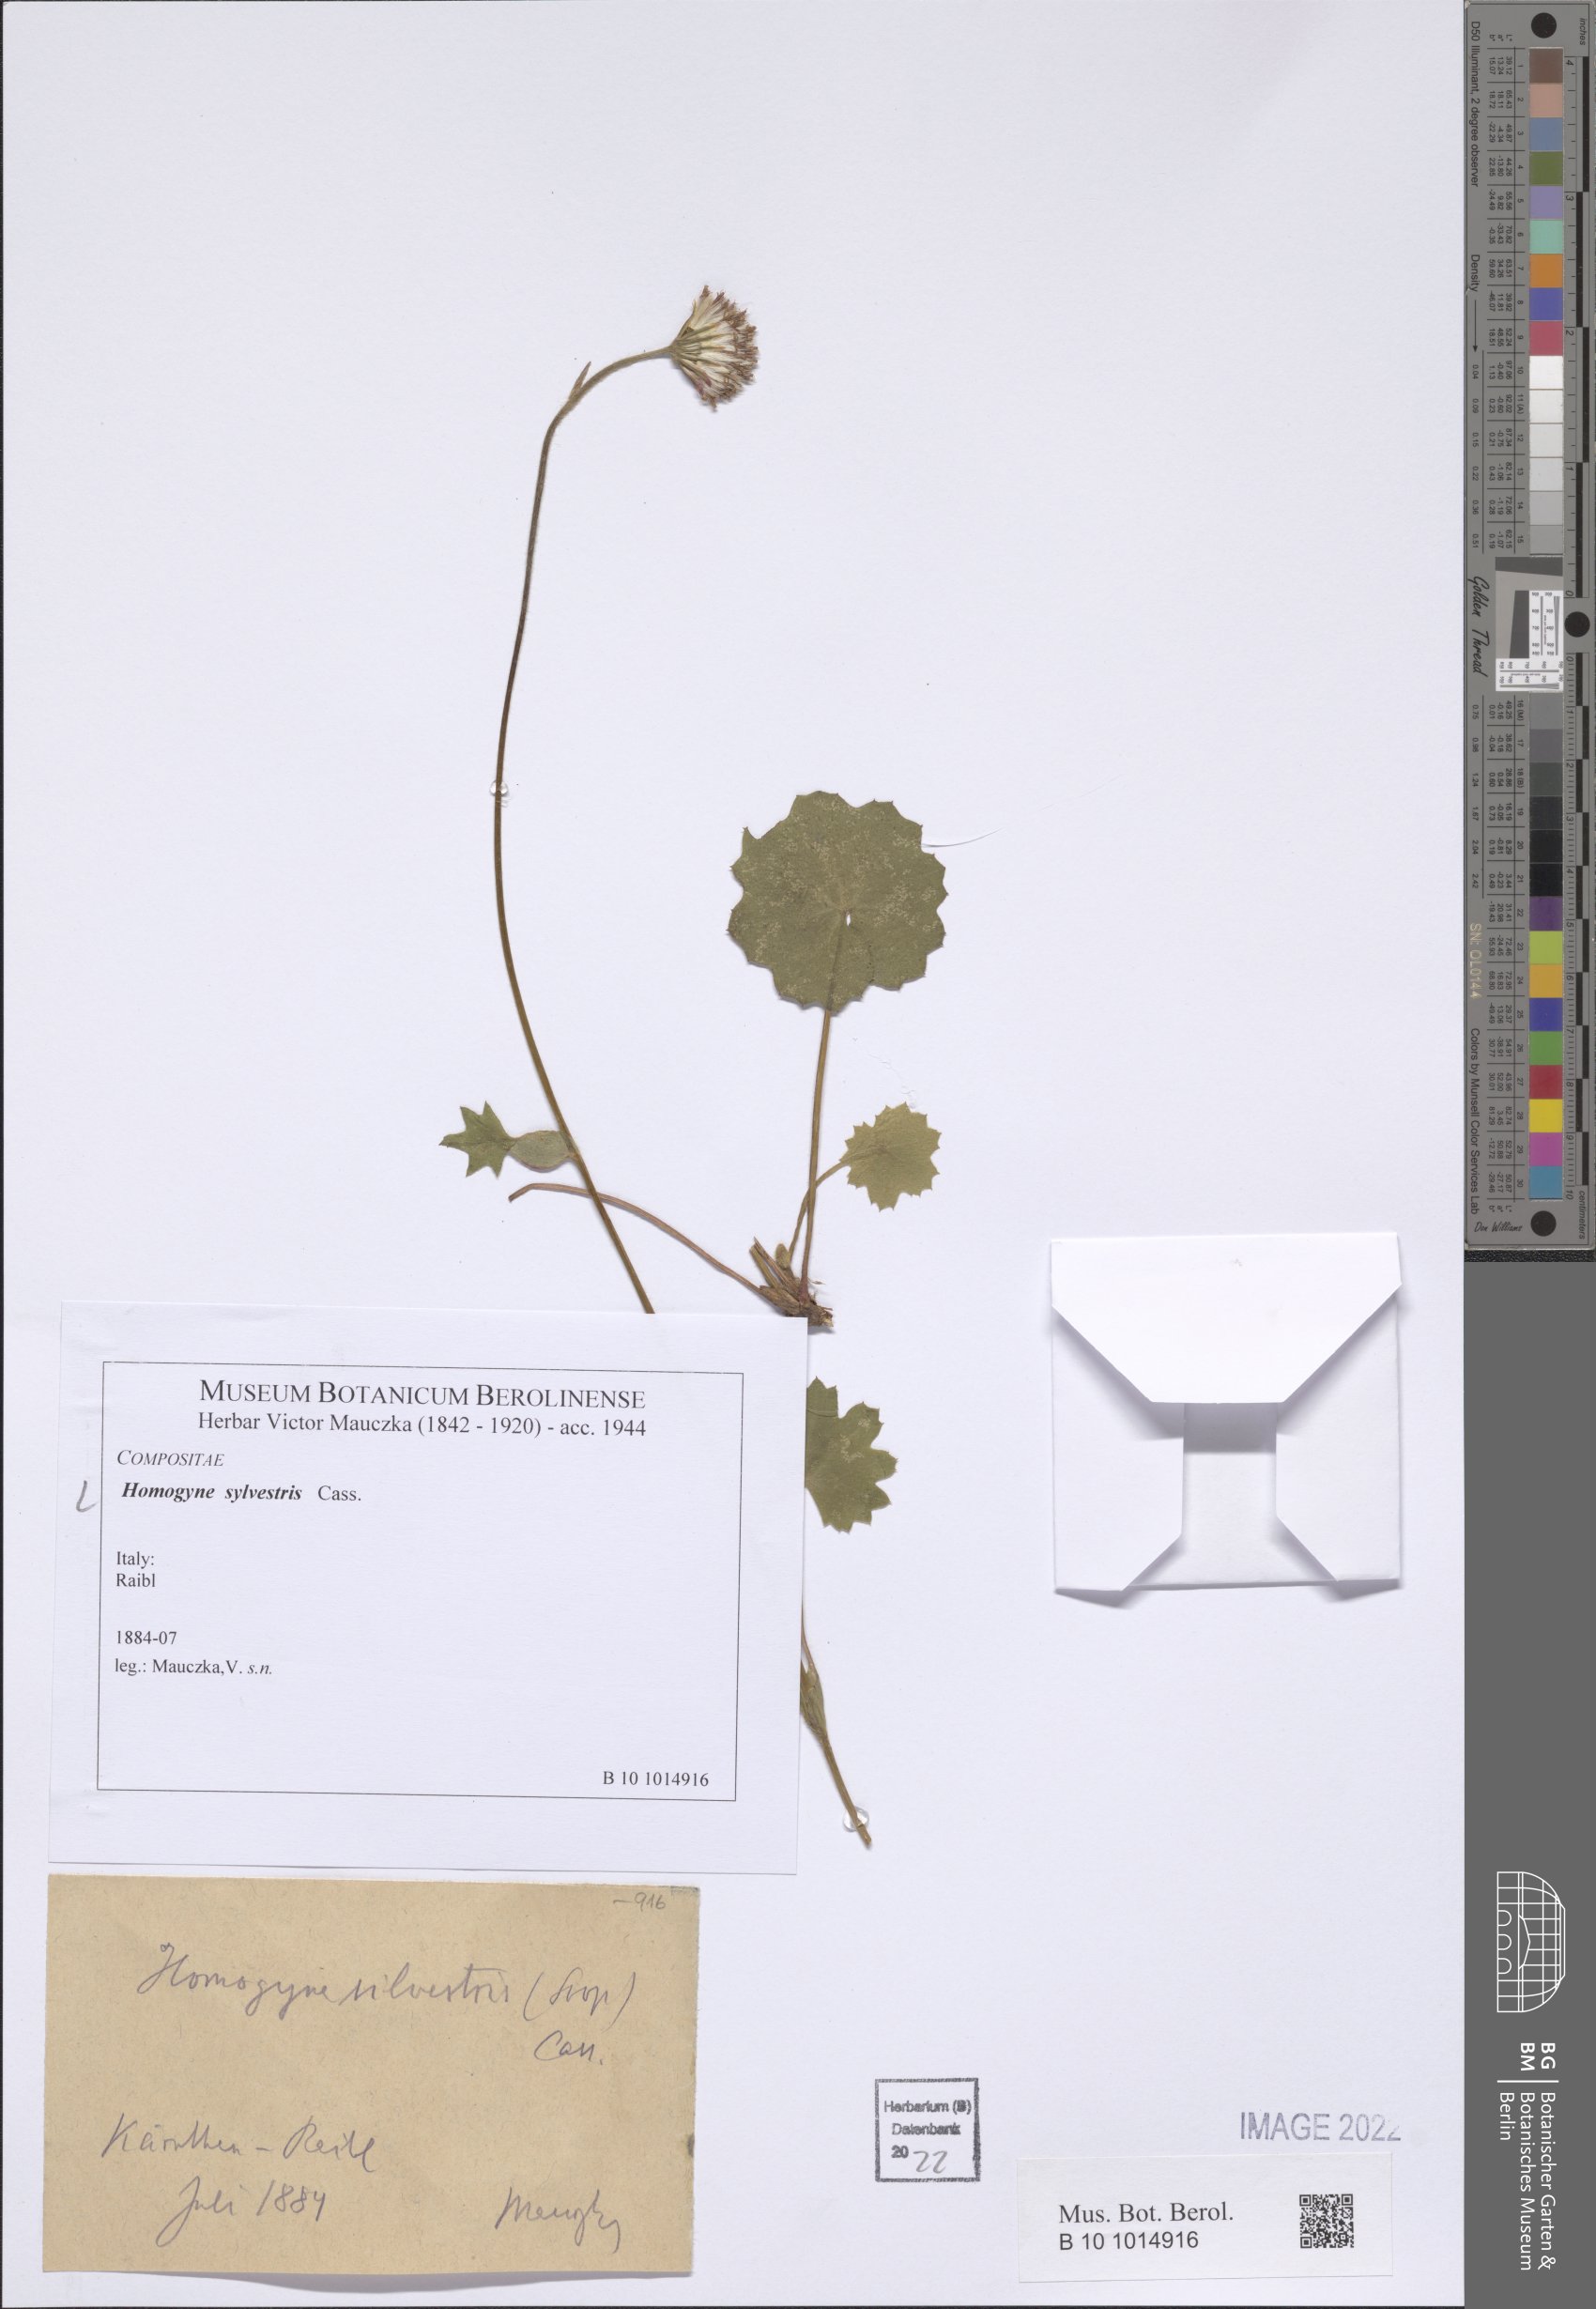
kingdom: Plantae
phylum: Tracheophyta
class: Magnoliopsida
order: Asterales
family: Asteraceae
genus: Homogyne
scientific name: Homogyne sylvestris
